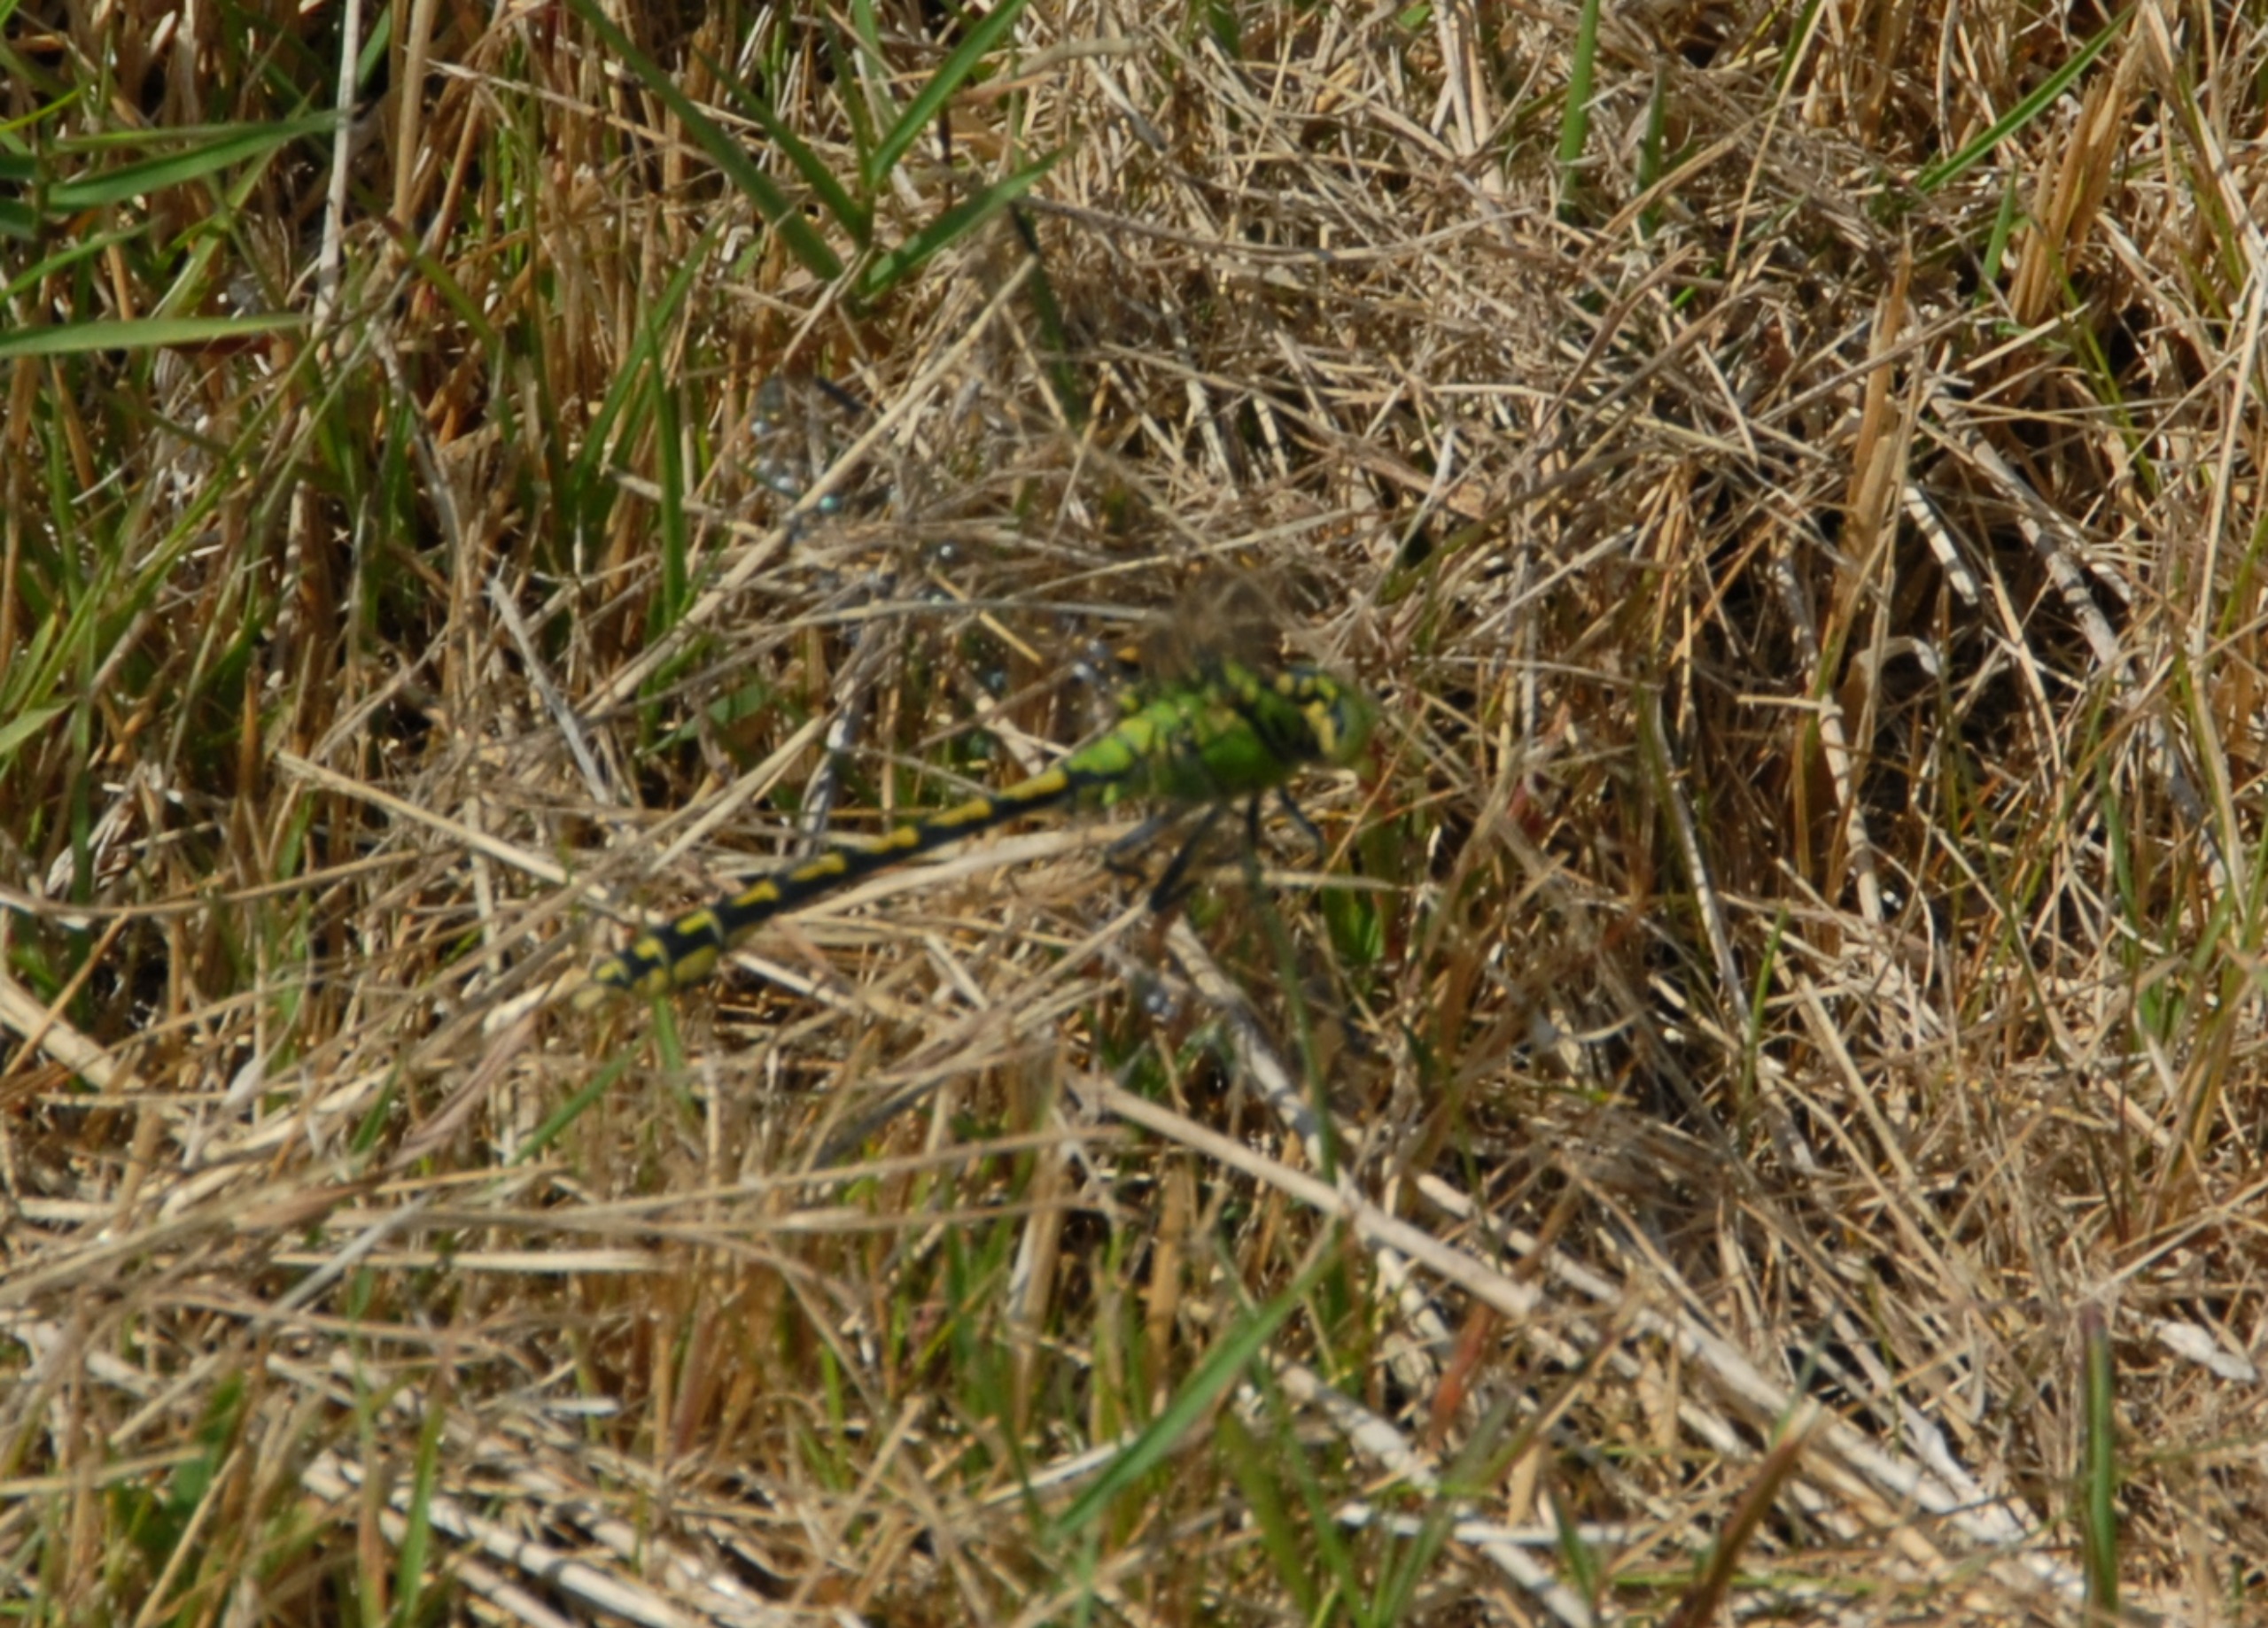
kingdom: Animalia
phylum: Arthropoda
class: Insecta
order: Odonata
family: Gomphidae
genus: Ophiogomphus
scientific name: Ophiogomphus cecilia
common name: Grøn kølleguldsmed
